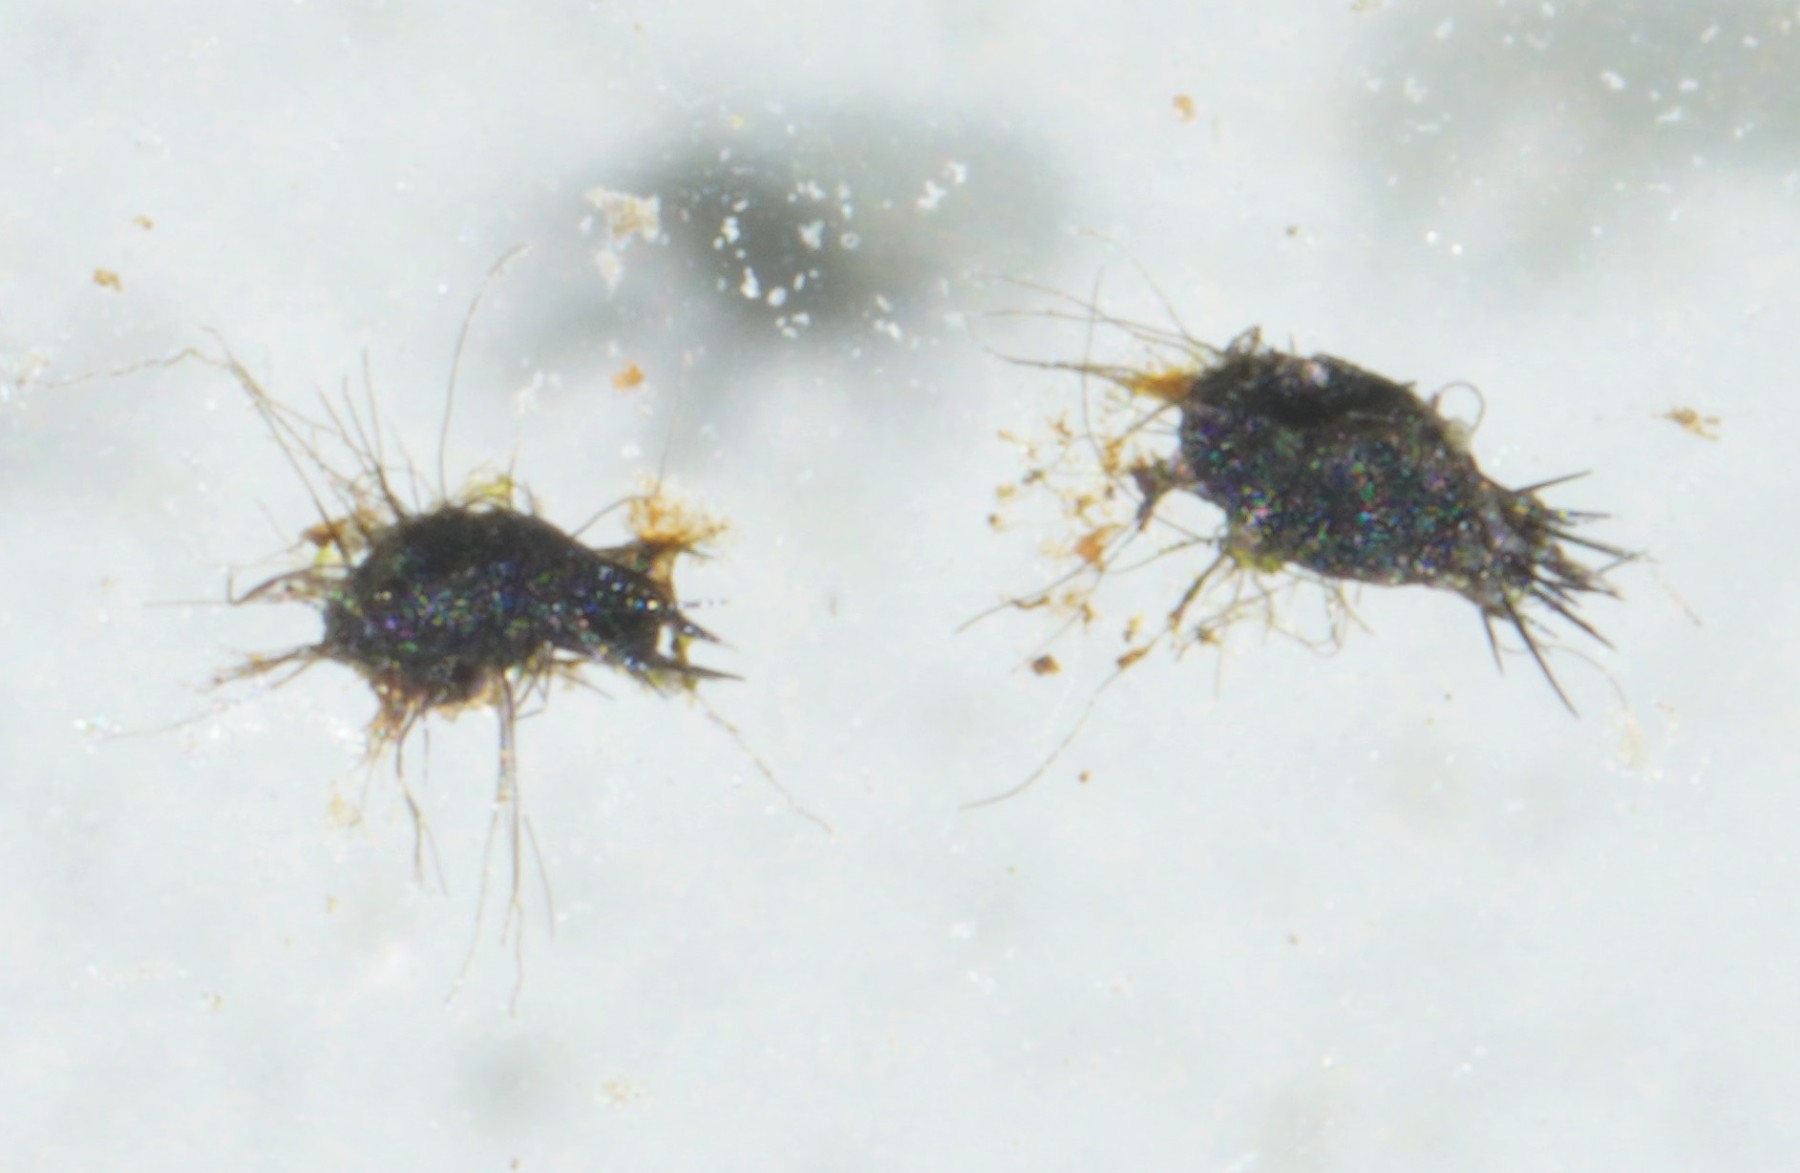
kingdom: Fungi
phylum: Ascomycota
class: Dothideomycetes
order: Phaeotrichales
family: Phaeotrichaceae
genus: Trichodelitschia
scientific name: Trichodelitschia bisporula
